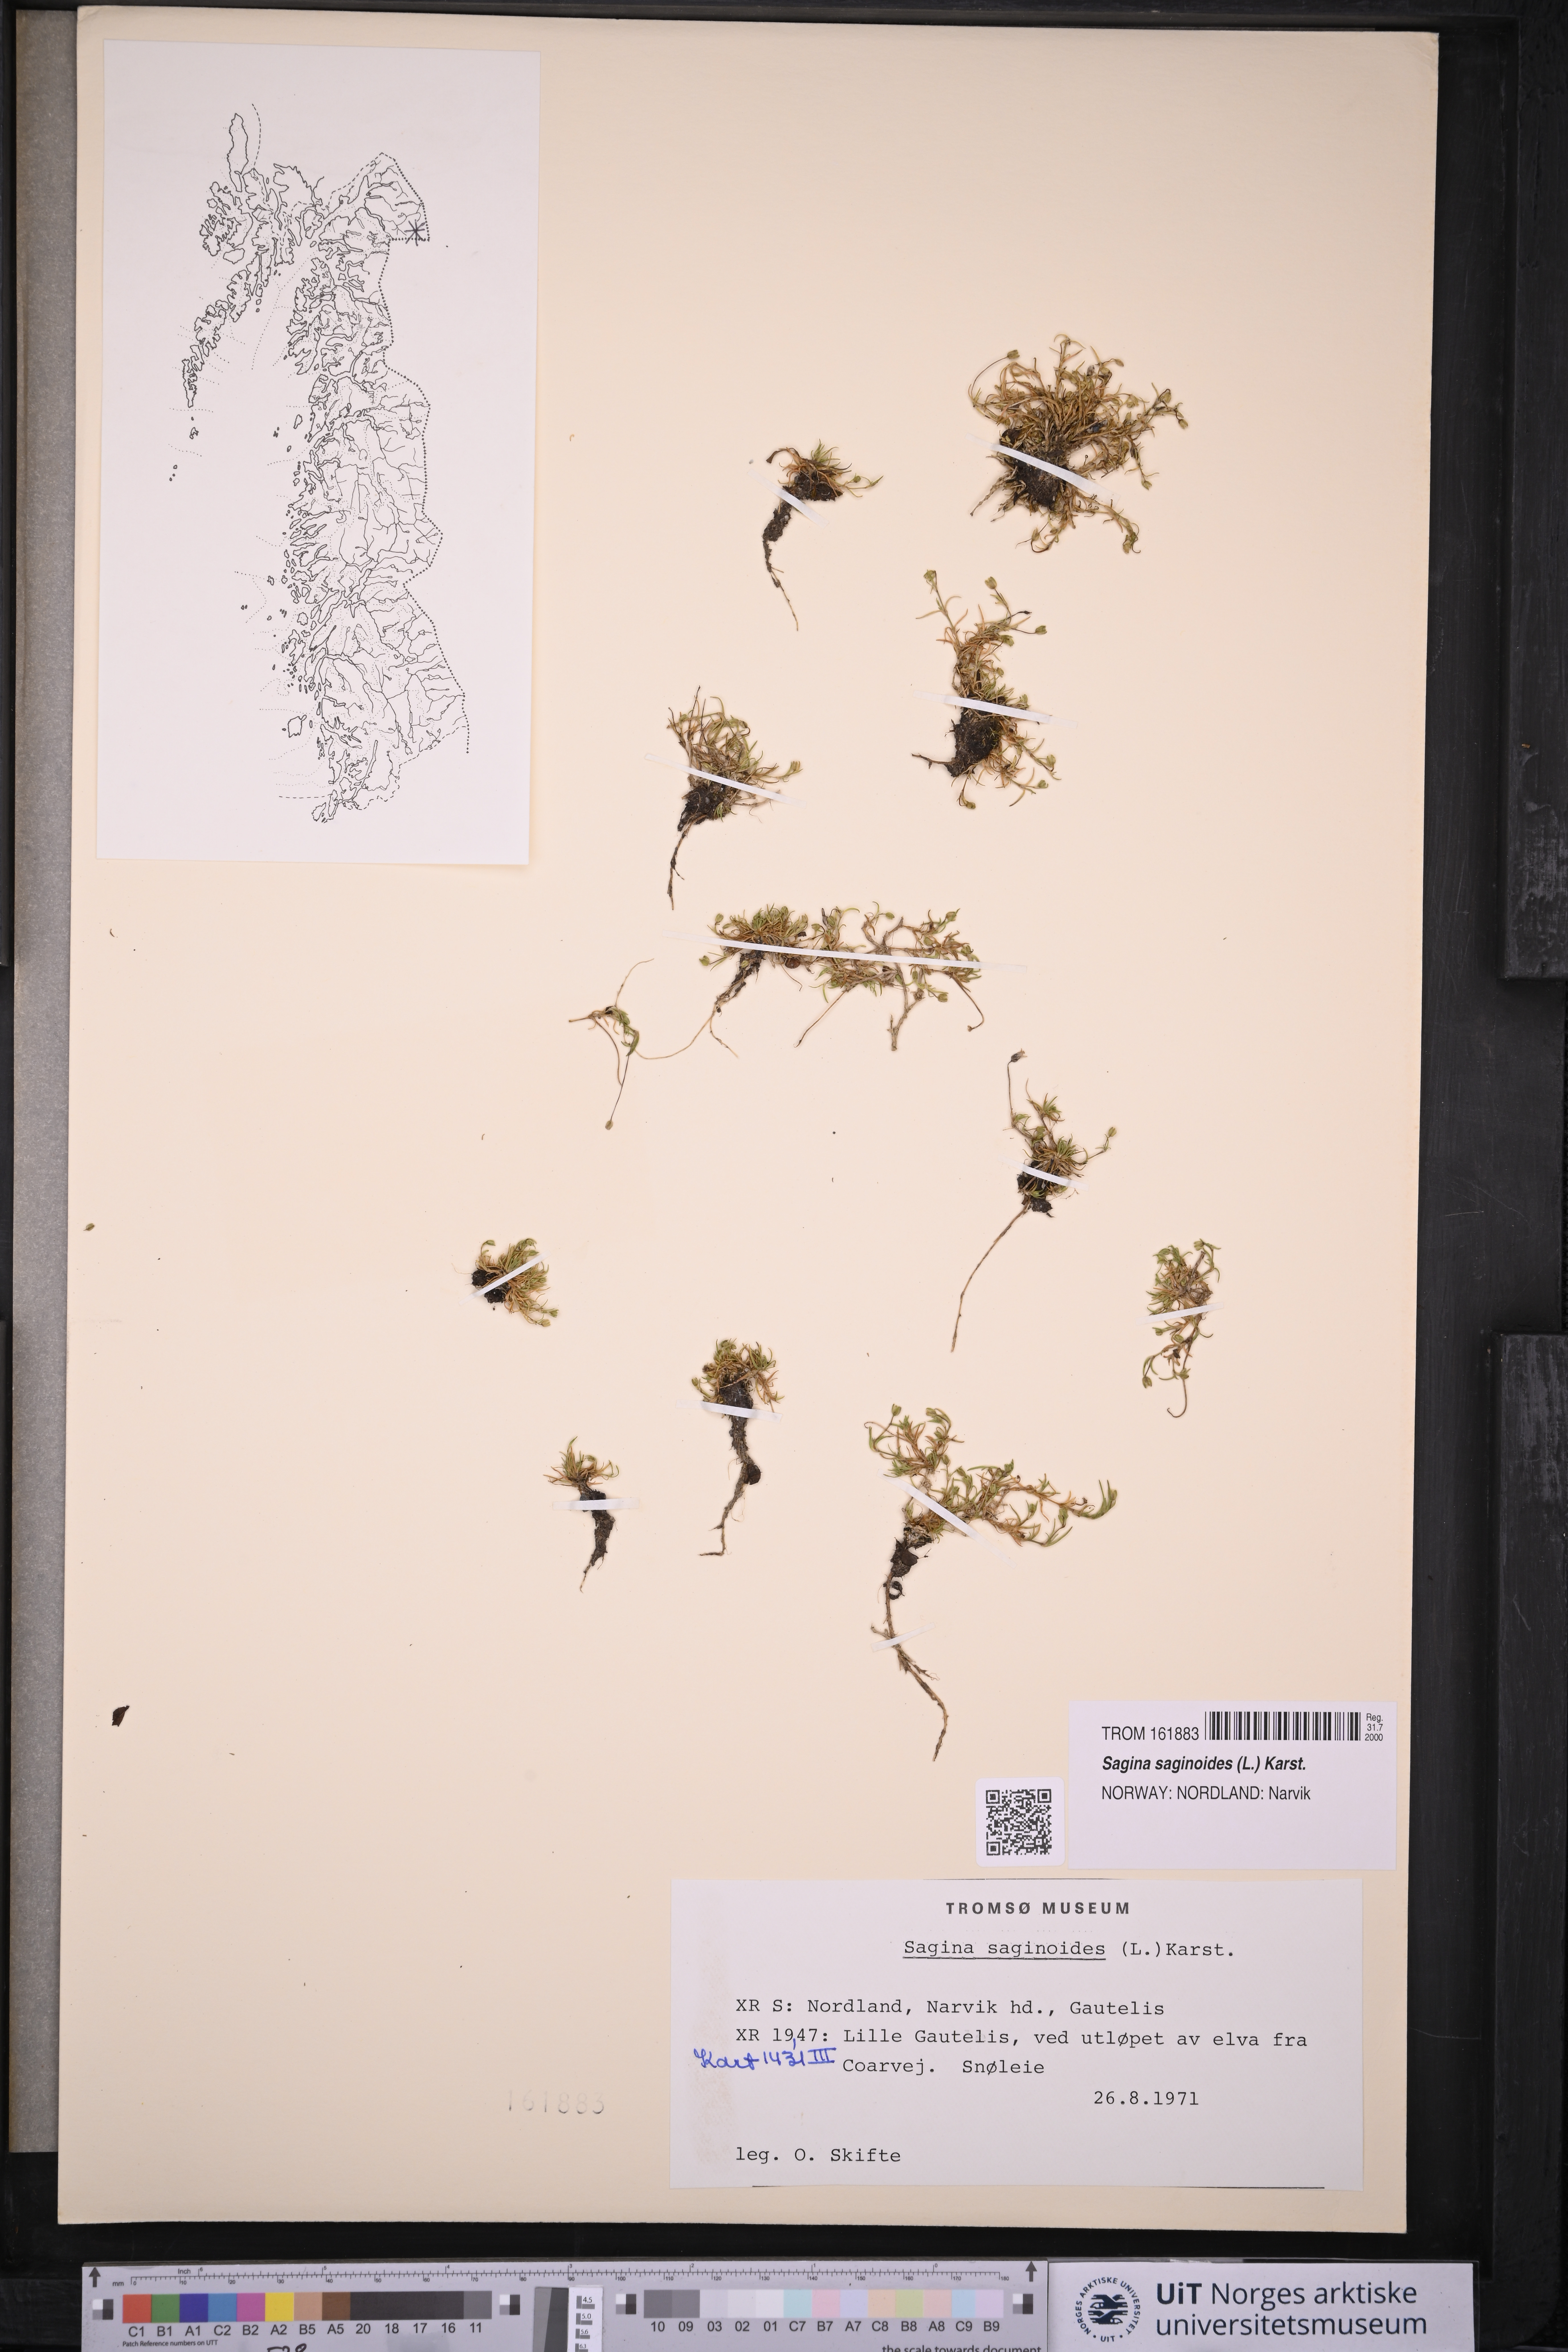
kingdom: Plantae
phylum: Tracheophyta
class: Magnoliopsida
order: Caryophyllales
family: Caryophyllaceae
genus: Sagina
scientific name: Sagina saginoides
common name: Alpine pearlwort
